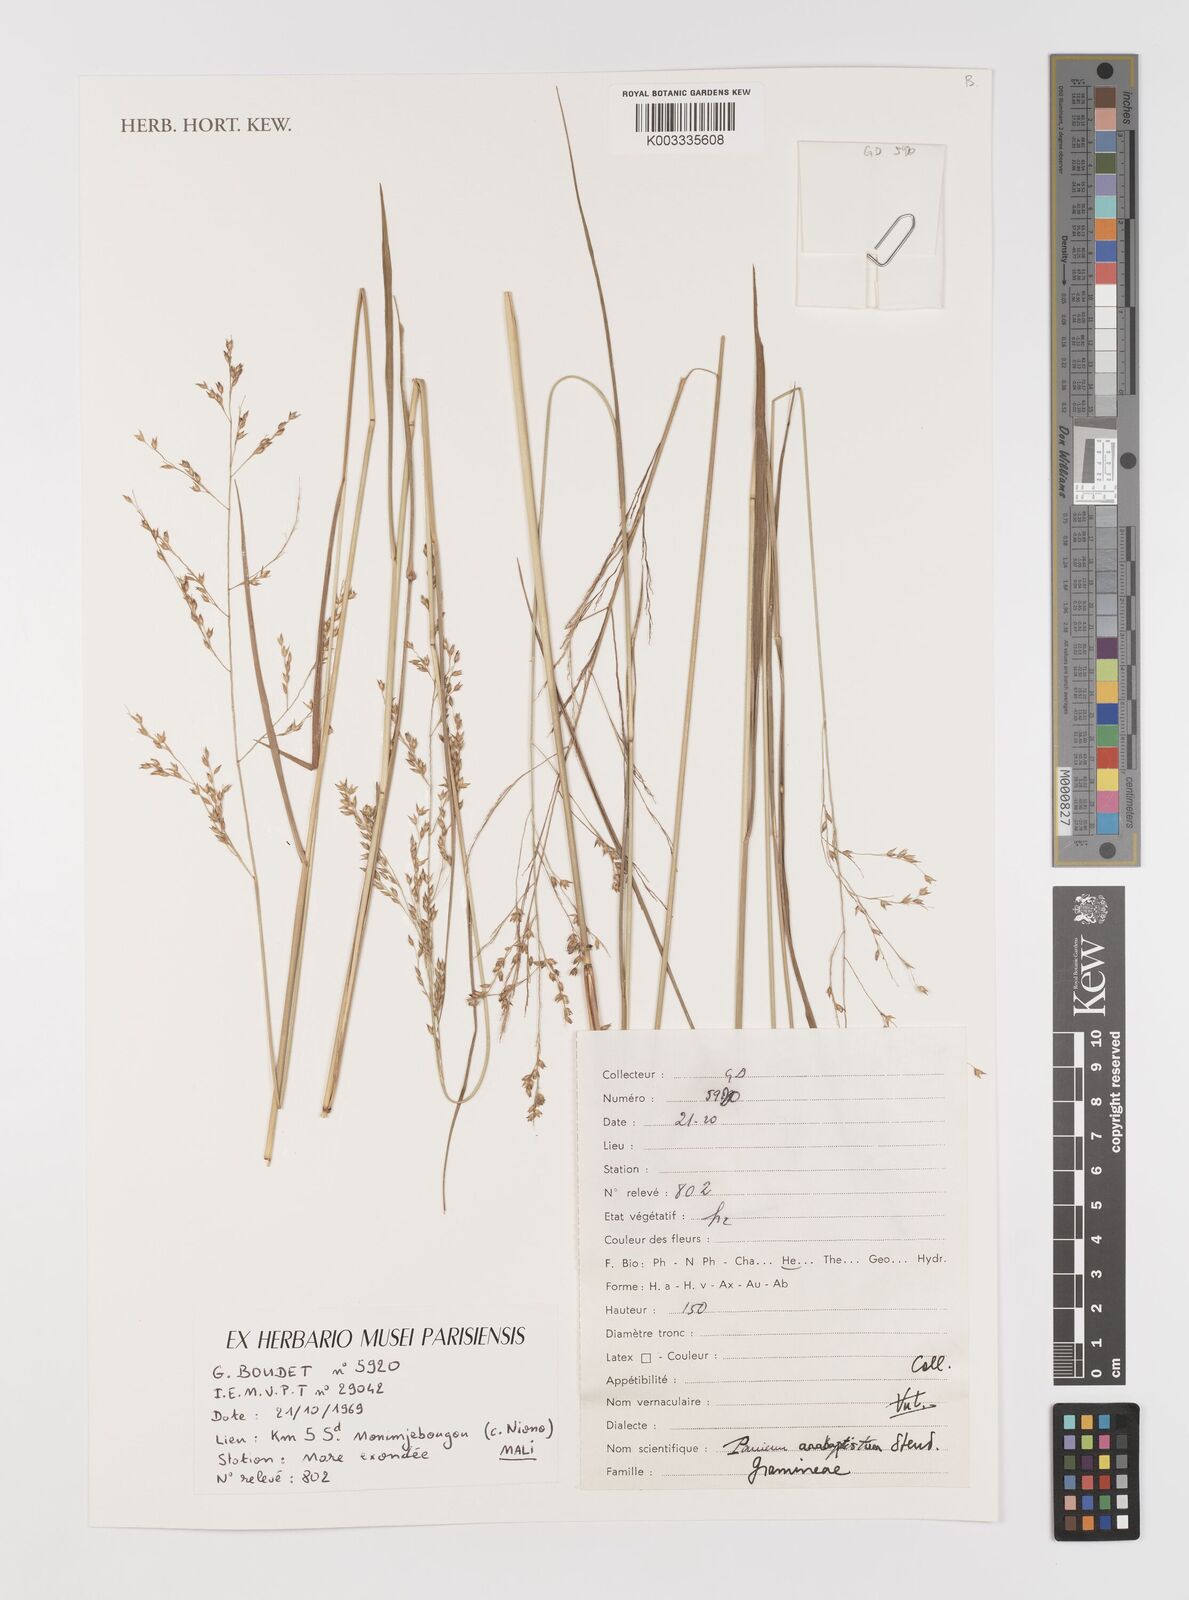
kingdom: Plantae
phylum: Tracheophyta
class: Liliopsida
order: Poales
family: Poaceae
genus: Panicum
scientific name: Panicum anabaptistum
